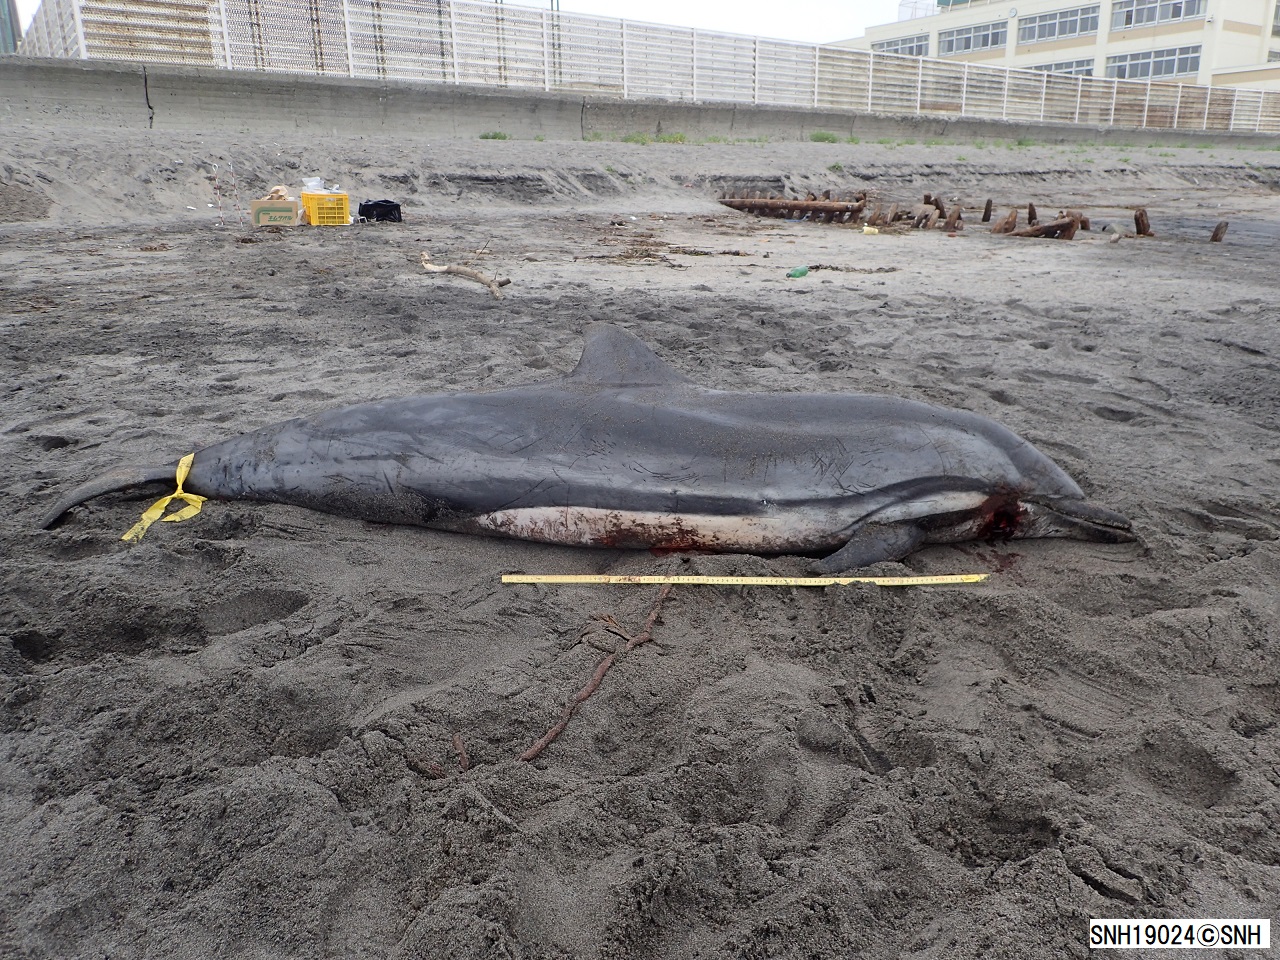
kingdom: Animalia
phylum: Chordata
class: Mammalia
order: Cetacea
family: Delphinidae
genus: Stenella
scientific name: Stenella coeruleoalba
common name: Striped dolphin
